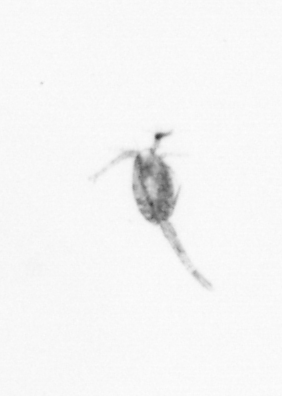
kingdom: Animalia
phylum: Arthropoda
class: Copepoda
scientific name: Copepoda
